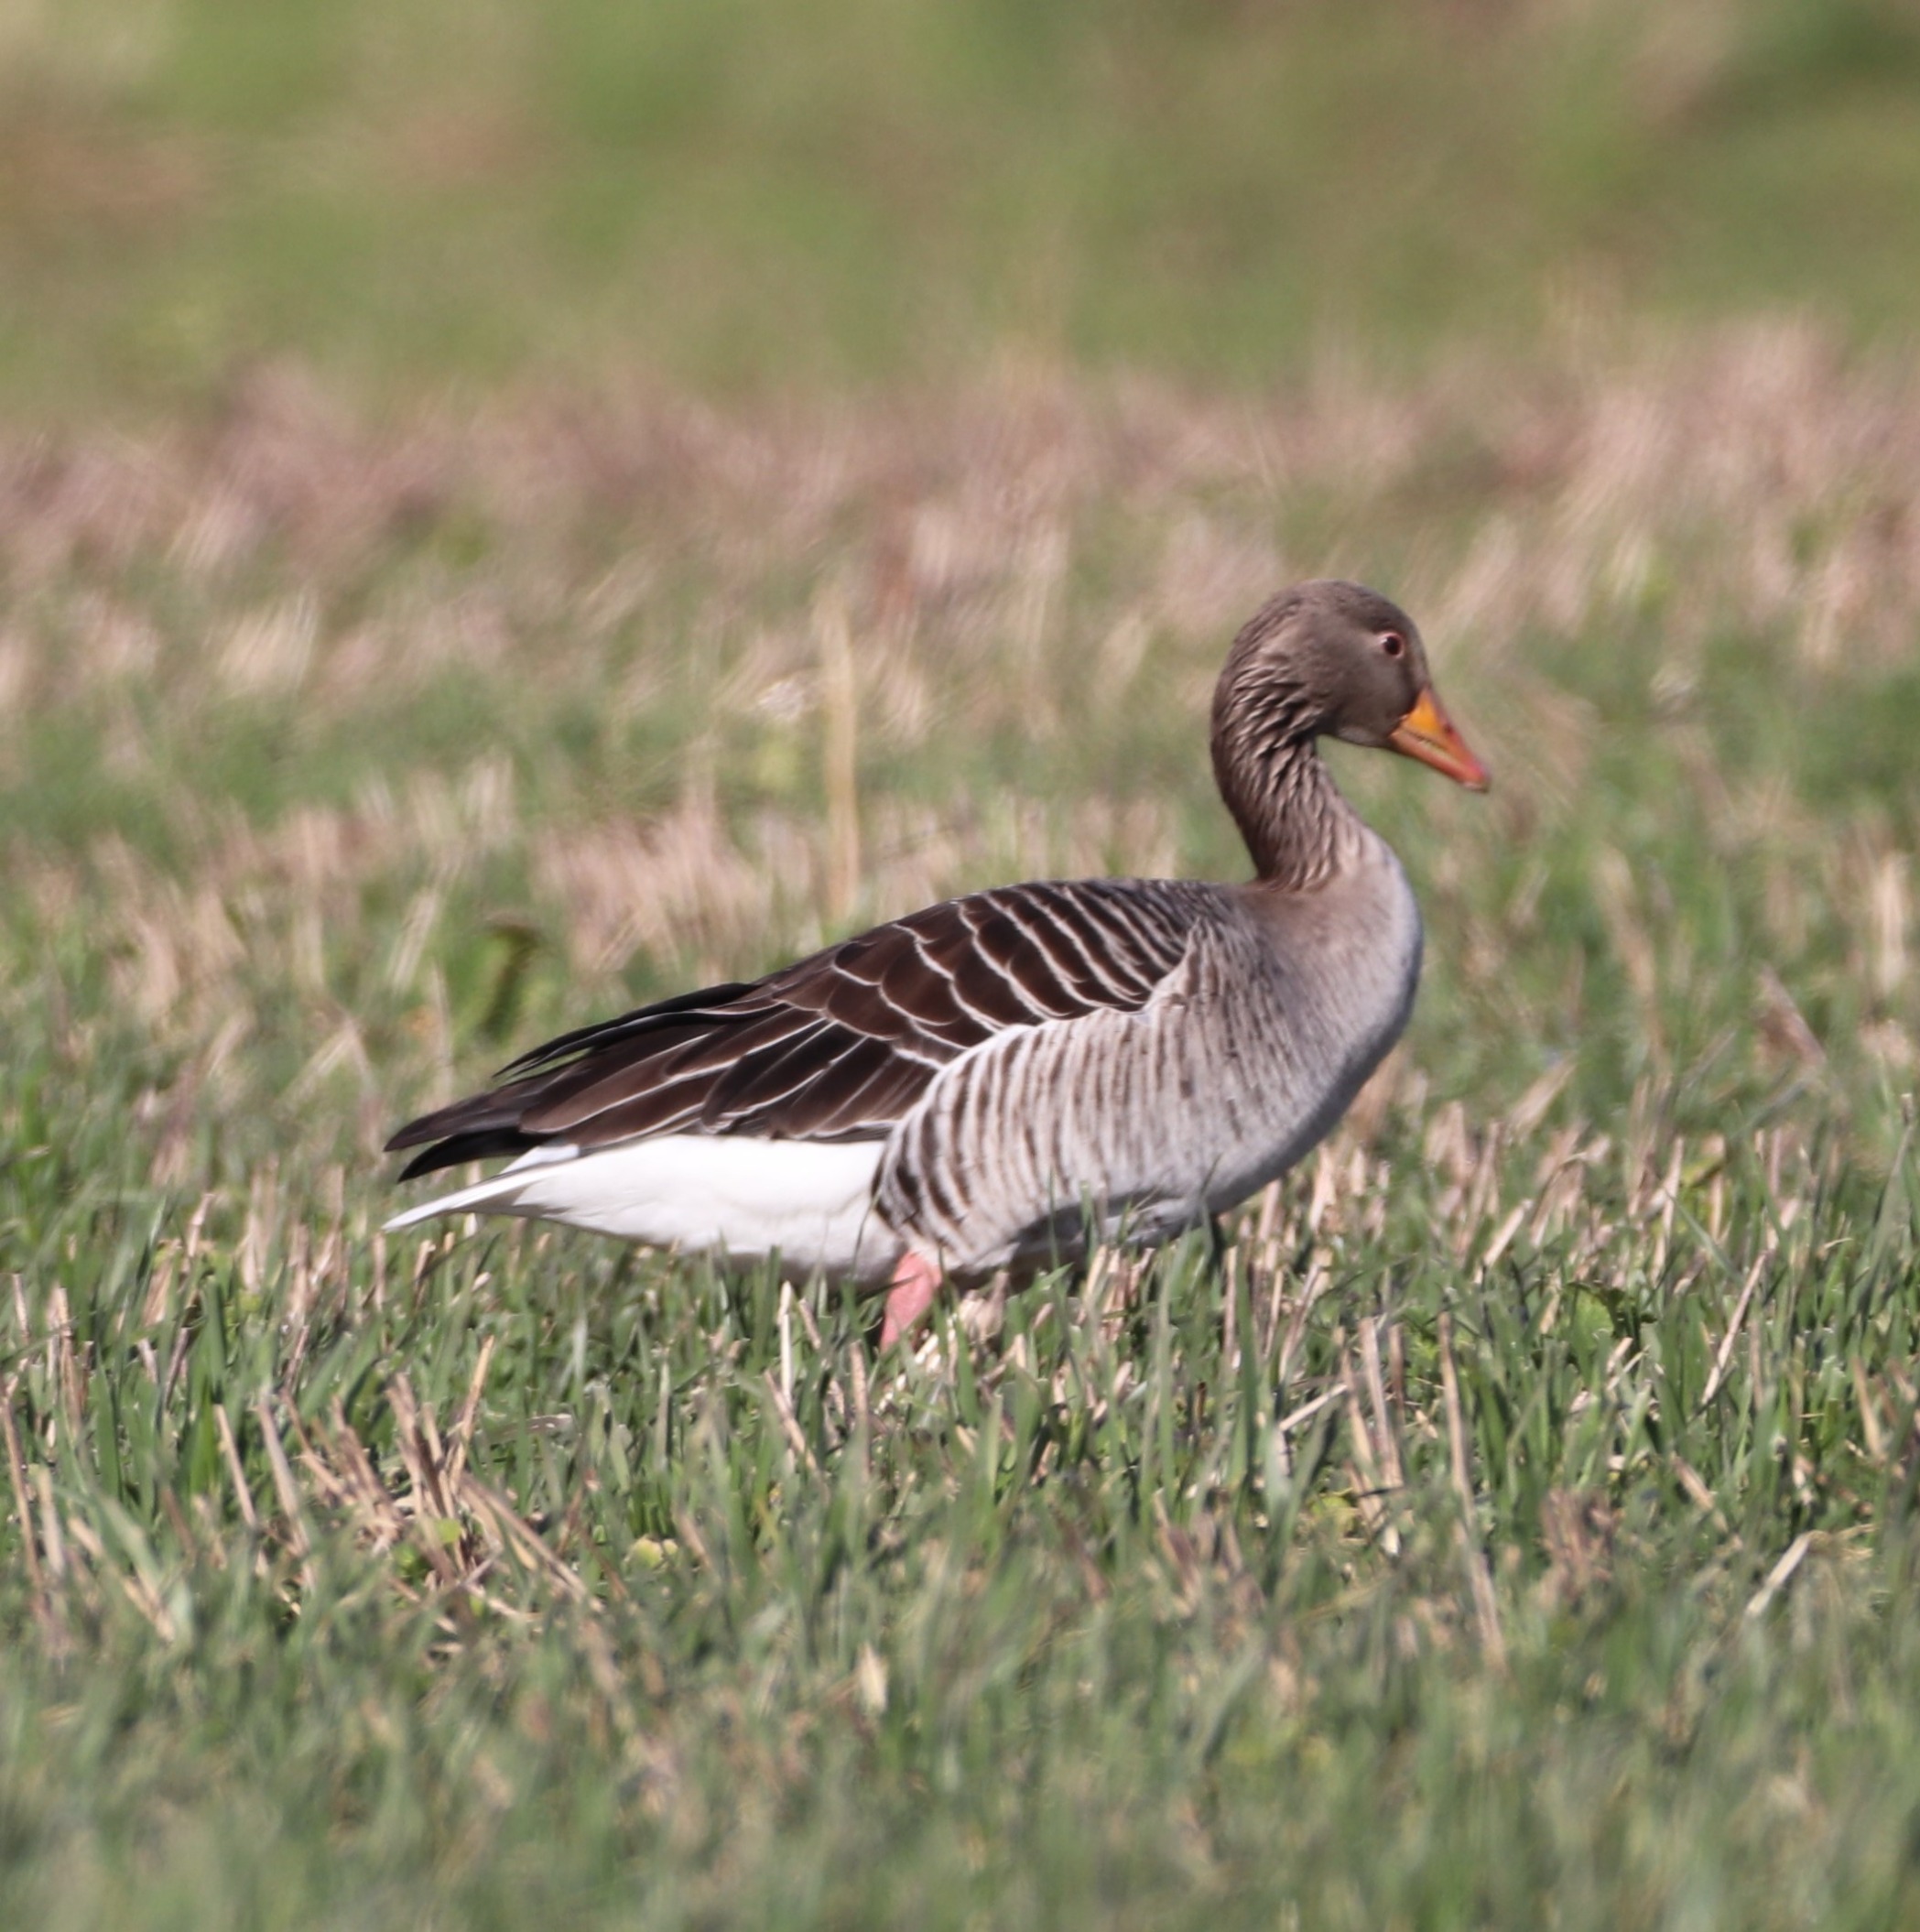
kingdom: Animalia
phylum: Chordata
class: Aves
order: Anseriformes
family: Anatidae
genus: Anser
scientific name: Anser anser
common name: Grågås
